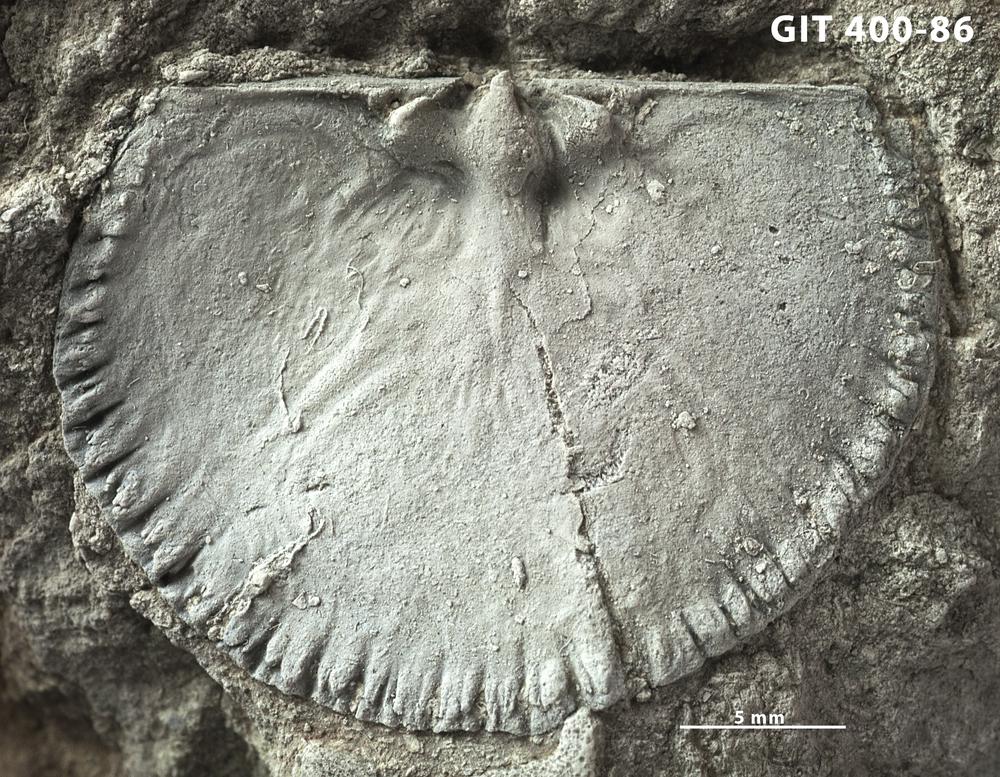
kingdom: Animalia
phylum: Brachiopoda
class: Rhynchonellata
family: Orthidae
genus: Cyrtonotella
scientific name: Cyrtonotella
